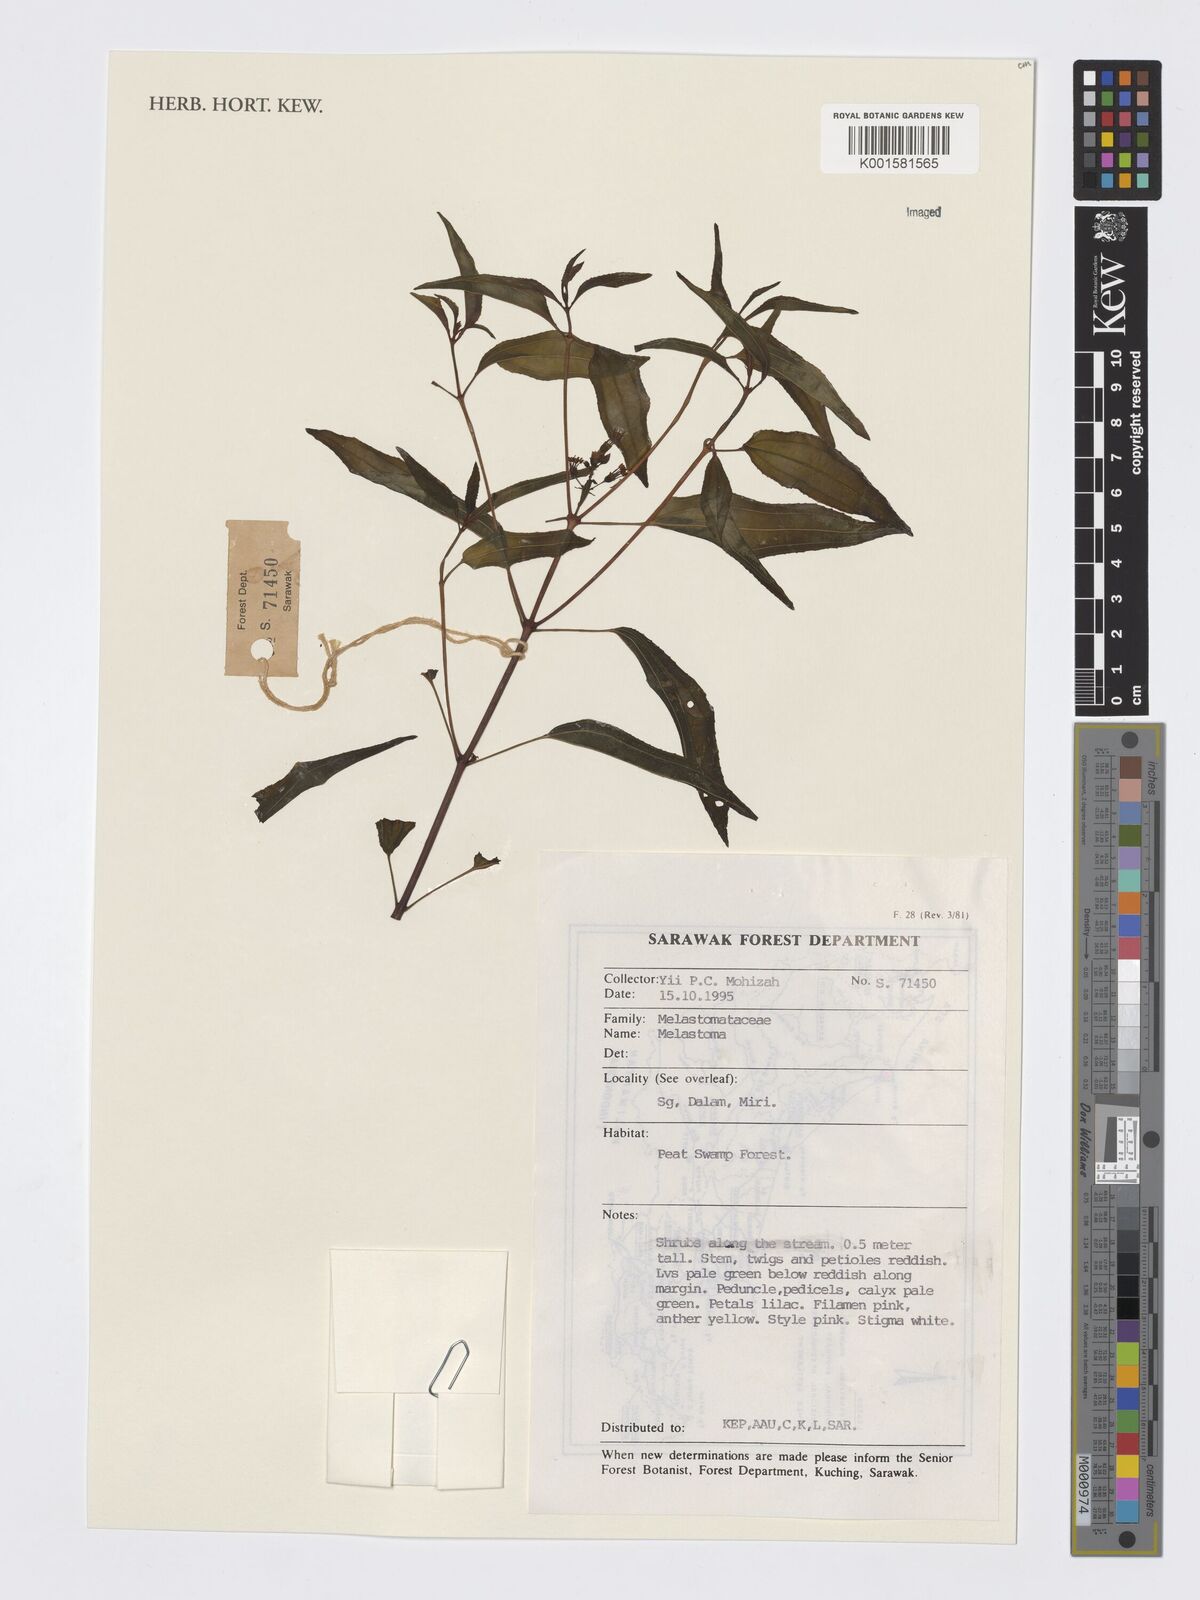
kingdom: Plantae
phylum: Tracheophyta
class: Magnoliopsida
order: Myrtales
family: Melastomataceae
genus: Melastoma
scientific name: Melastoma
